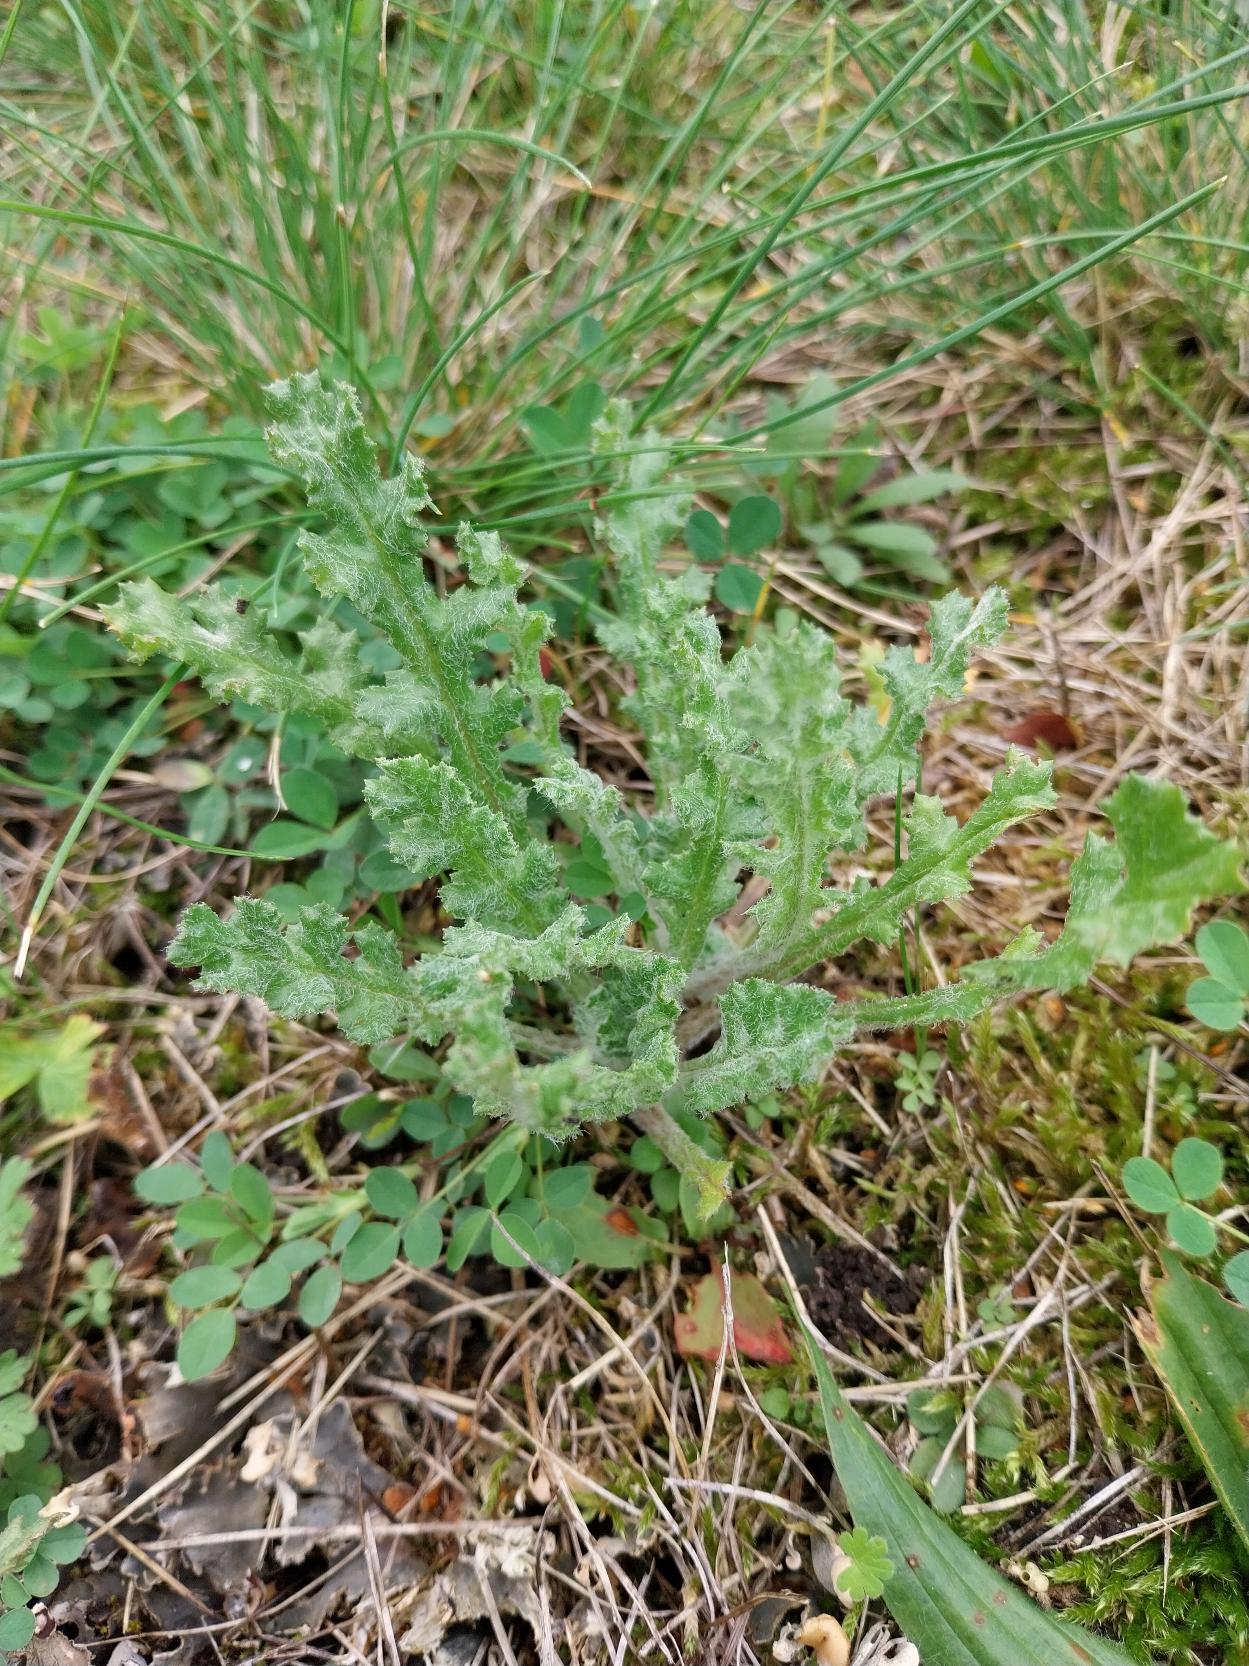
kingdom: Plantae
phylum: Tracheophyta
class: Magnoliopsida
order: Asterales
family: Asteraceae
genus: Senecio
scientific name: Senecio leucanthemifolius
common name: Vår-brandbæger
